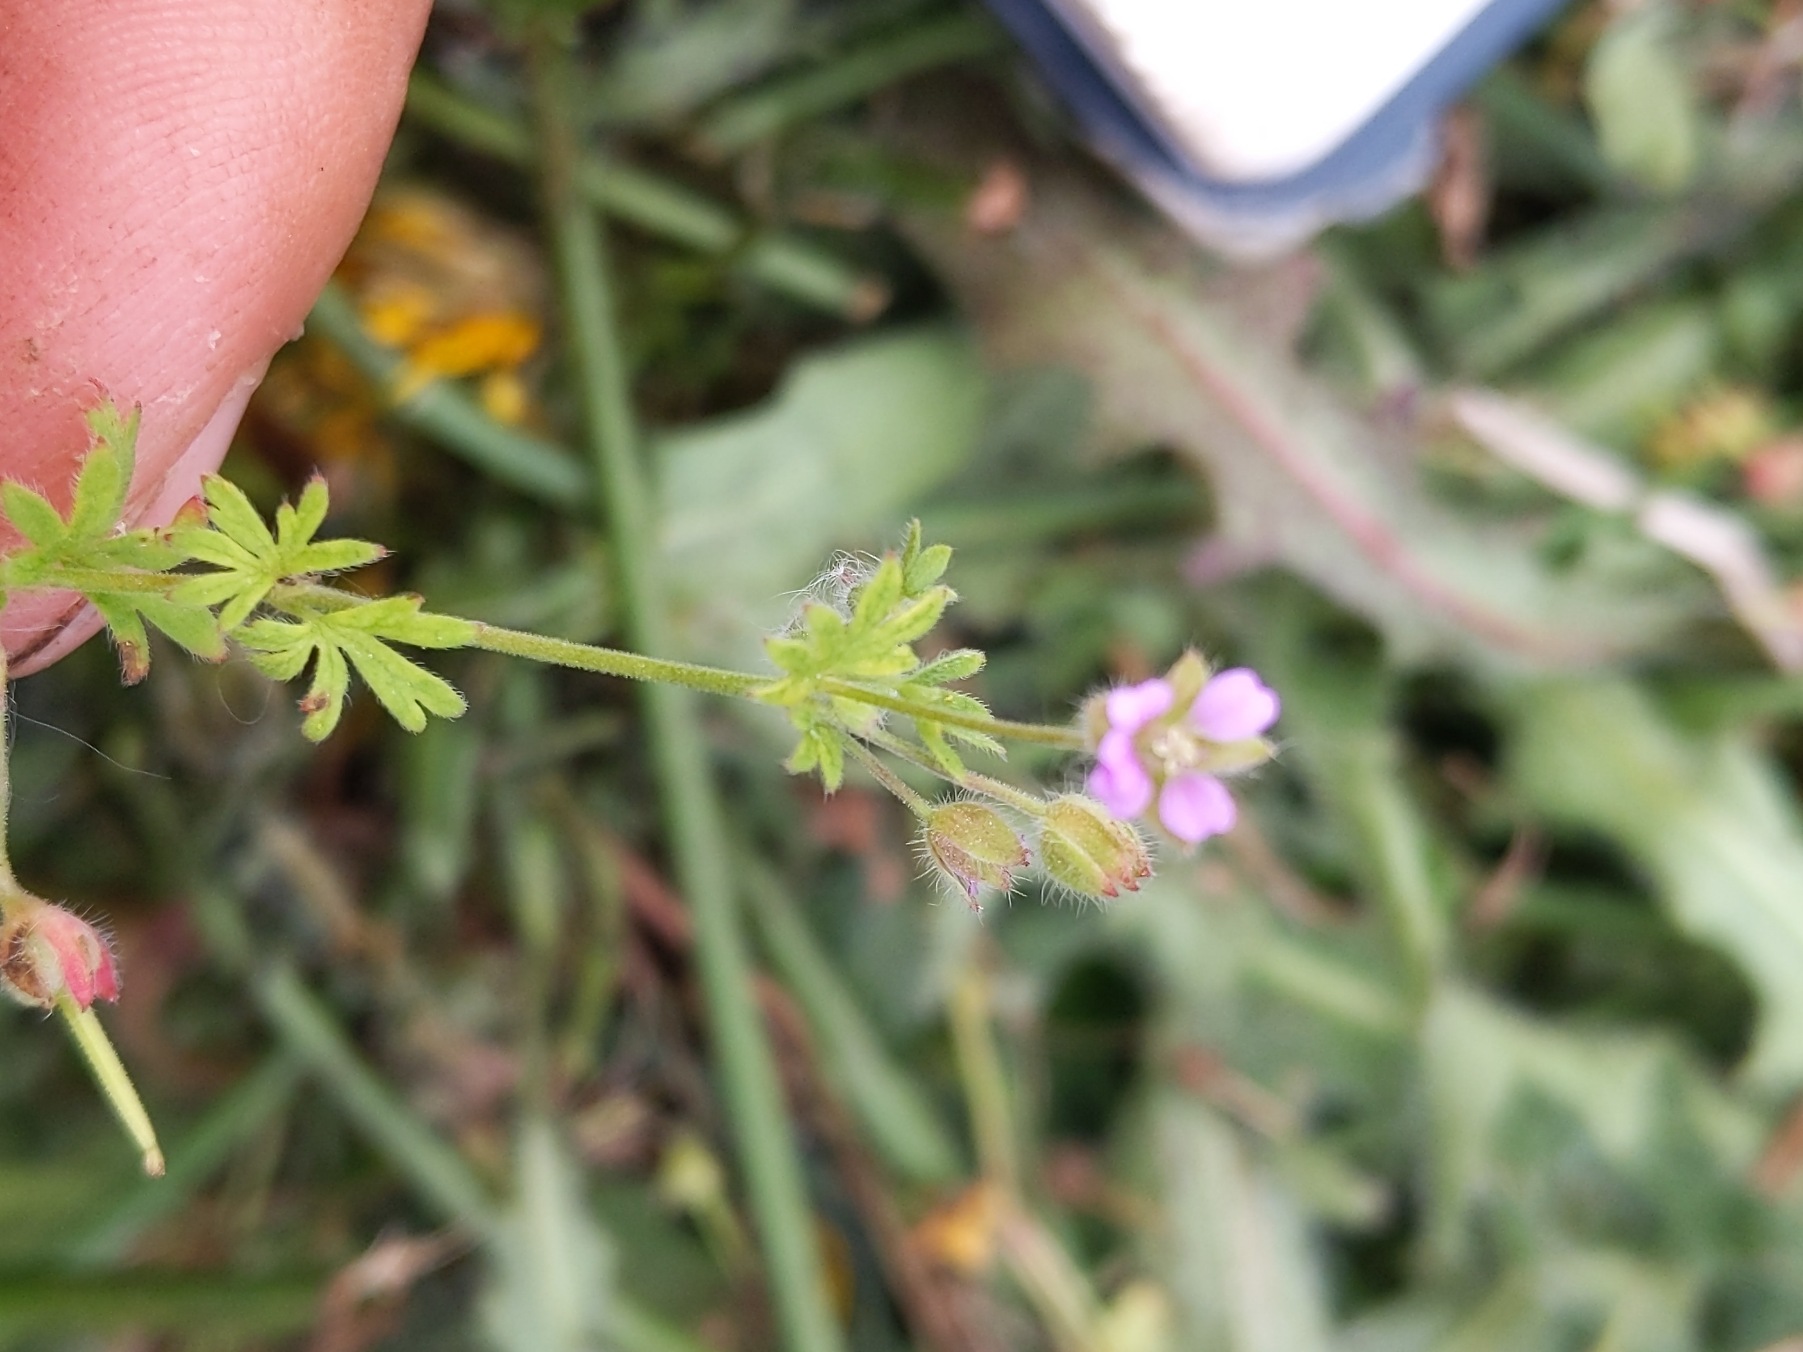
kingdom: Plantae
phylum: Tracheophyta
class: Magnoliopsida
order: Geraniales
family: Geraniaceae
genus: Geranium
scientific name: Geranium pusillum
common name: Liden storkenæb
